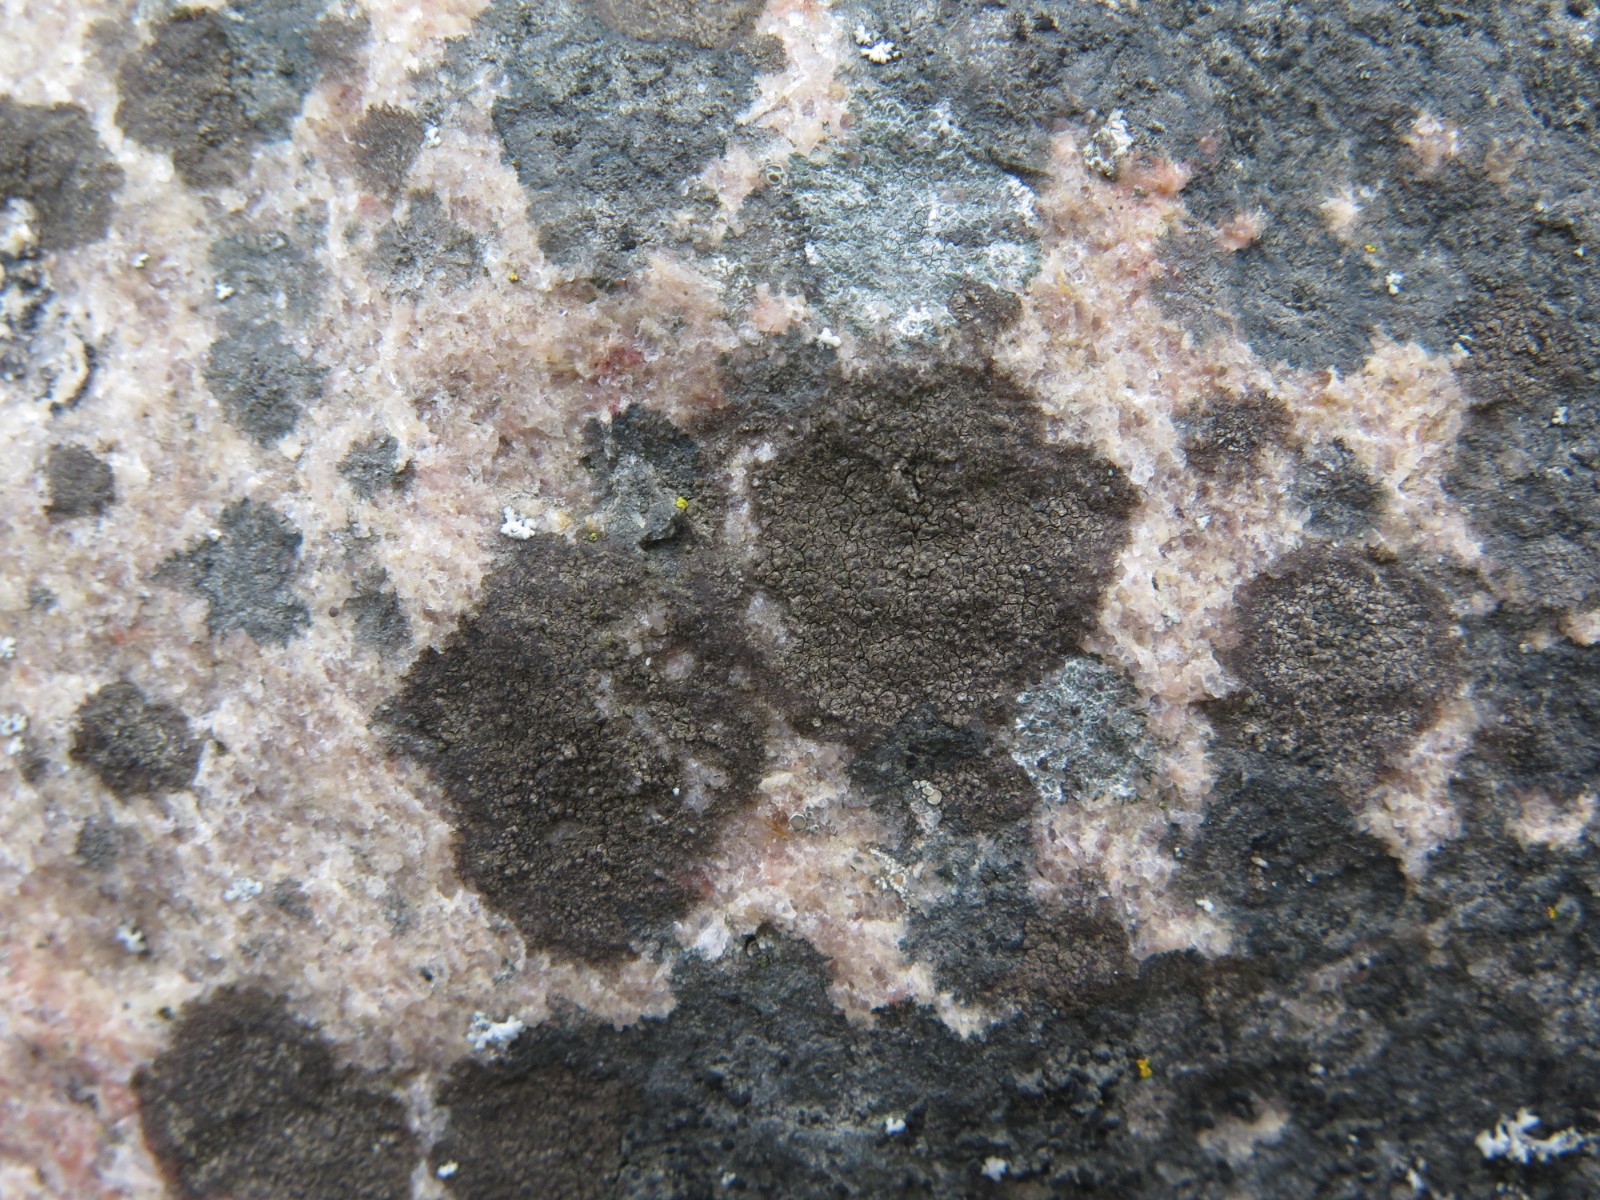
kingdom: Fungi
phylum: Ascomycota
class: Eurotiomycetes
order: Verrucariales
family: Verrucariaceae
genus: Verrucaria
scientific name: Verrucaria nigrescens
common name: sortbrun vortelav
